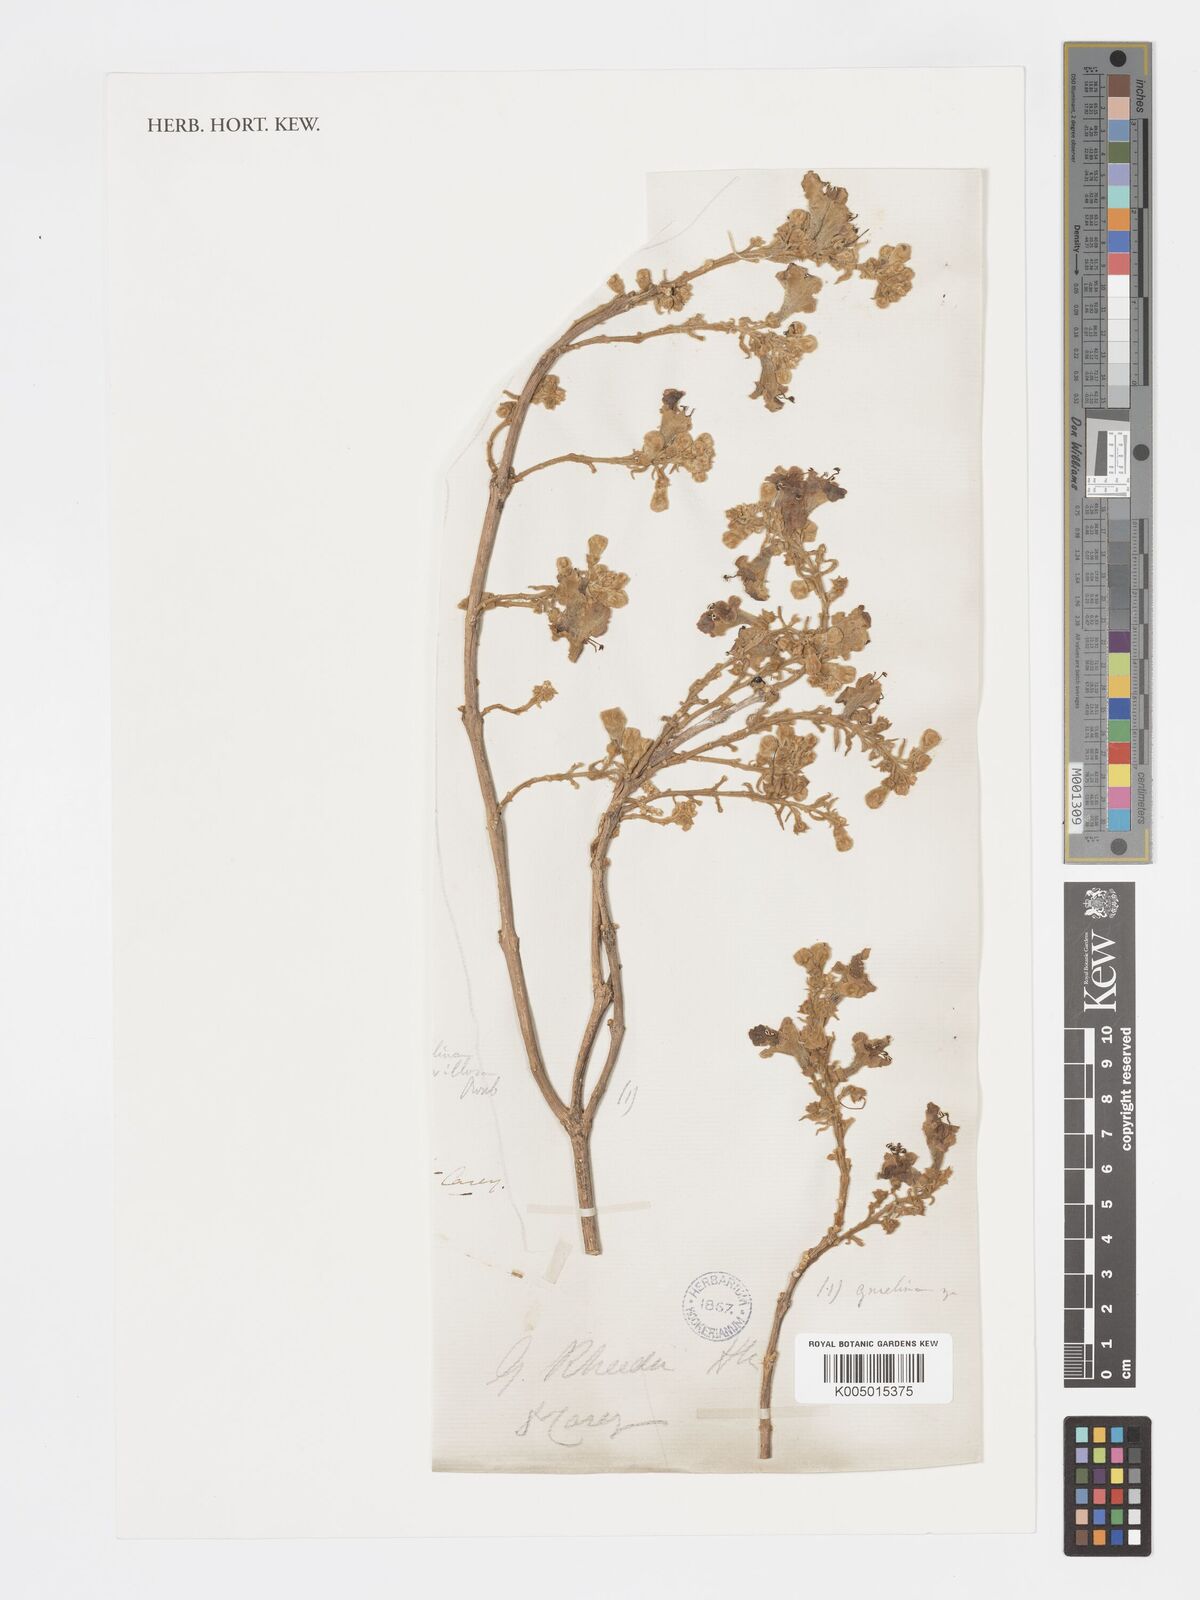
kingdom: Plantae
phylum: Tracheophyta
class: Magnoliopsida
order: Lamiales
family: Lamiaceae
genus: Gmelina
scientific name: Gmelina arborea
